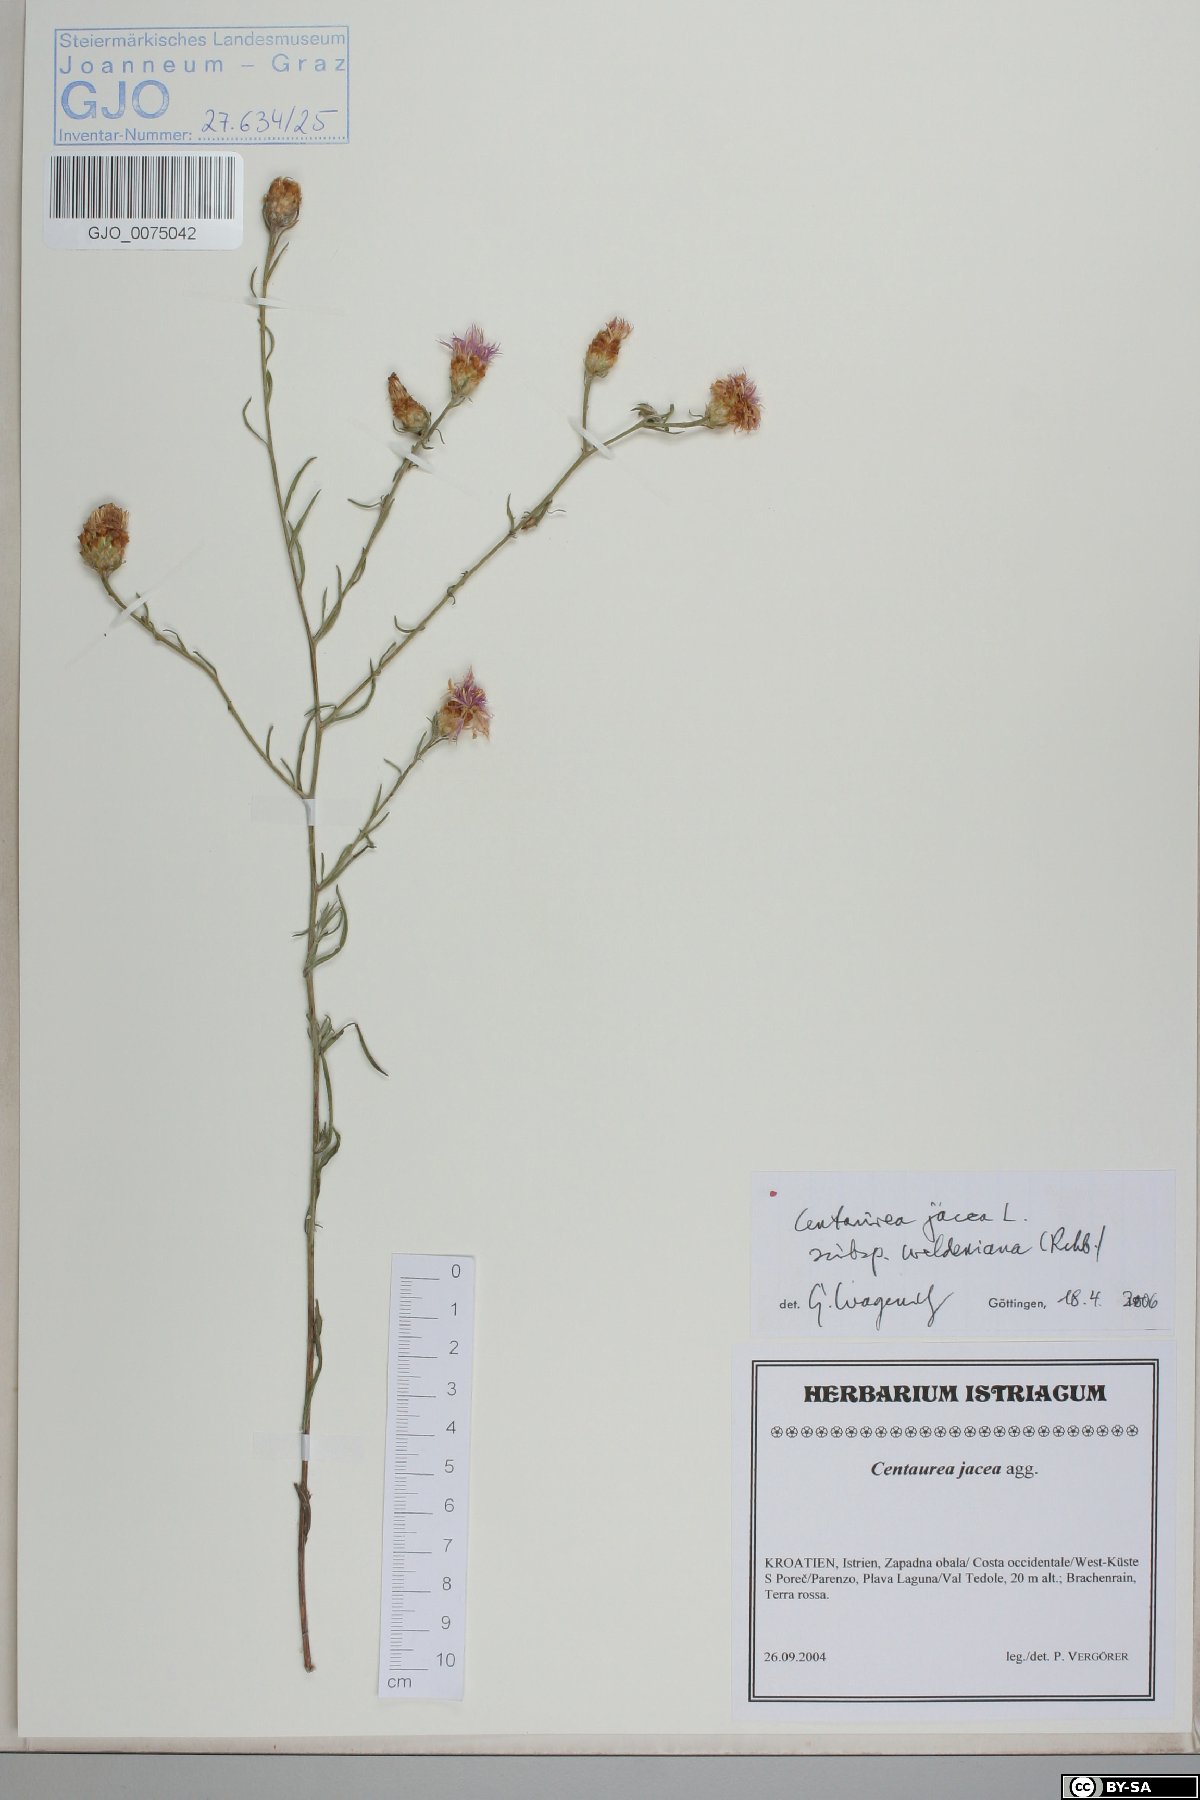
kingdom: Plantae
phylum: Tracheophyta
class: Magnoliopsida
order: Asterales
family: Asteraceae
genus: Centaurea
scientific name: Centaurea jacea
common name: Brown knapweed
